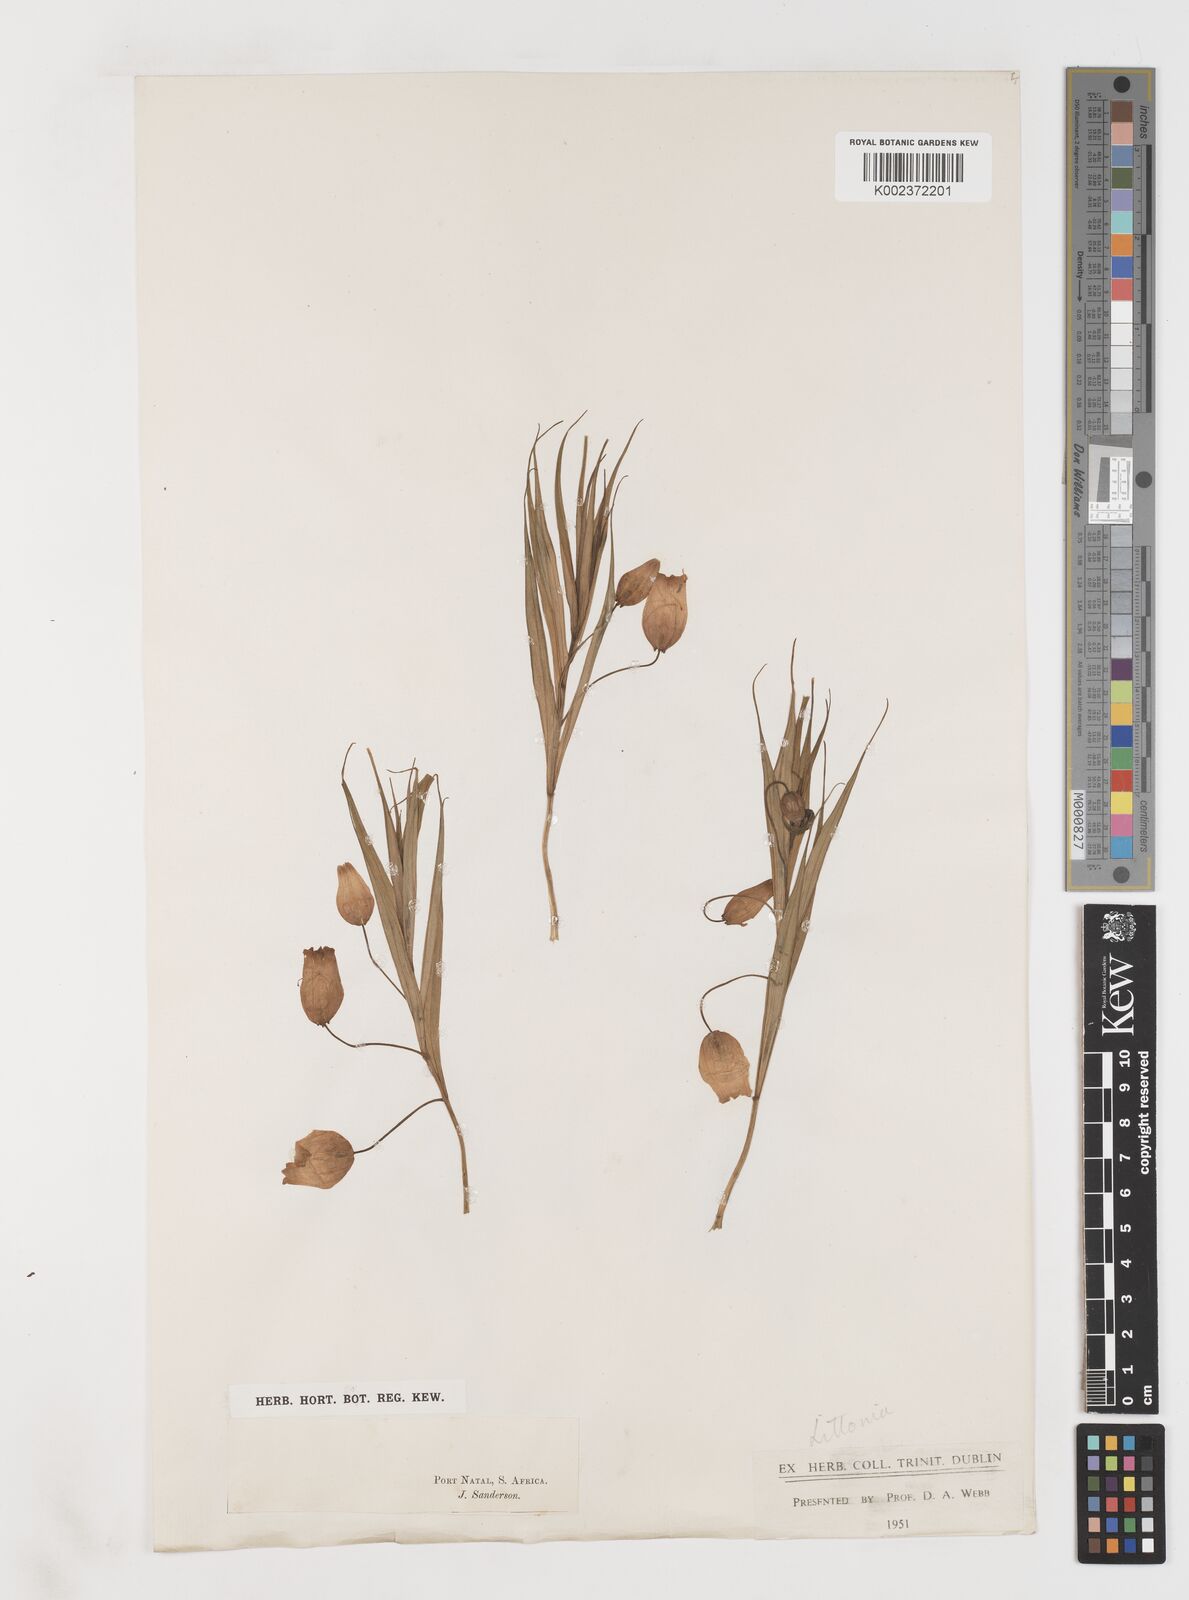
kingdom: Plantae
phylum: Tracheophyta
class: Liliopsida
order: Liliales
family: Colchicaceae
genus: Sandersonia
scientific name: Sandersonia aurantiaca
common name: Chinese-lantern-lily
